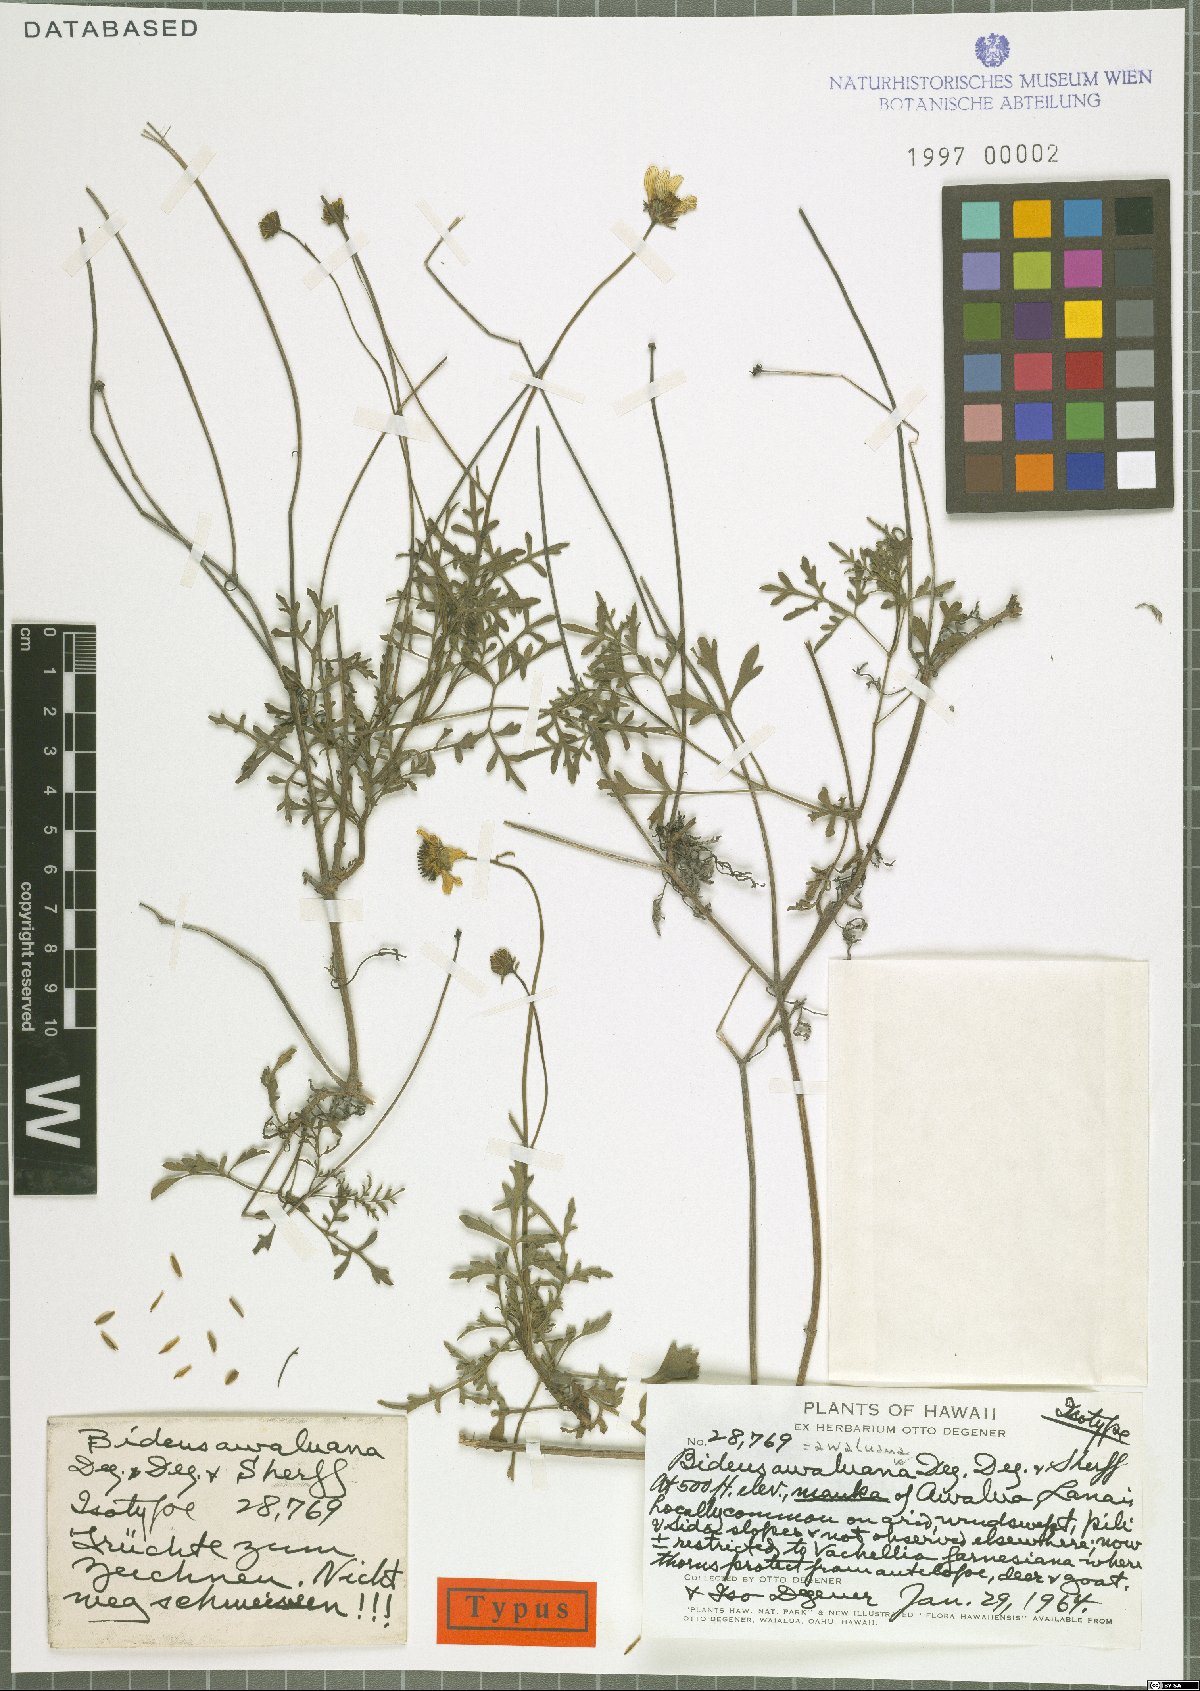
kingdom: Plantae
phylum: Tracheophyta
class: Magnoliopsida
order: Asterales
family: Asteraceae
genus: Bidens
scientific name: Bidens mauiensis
